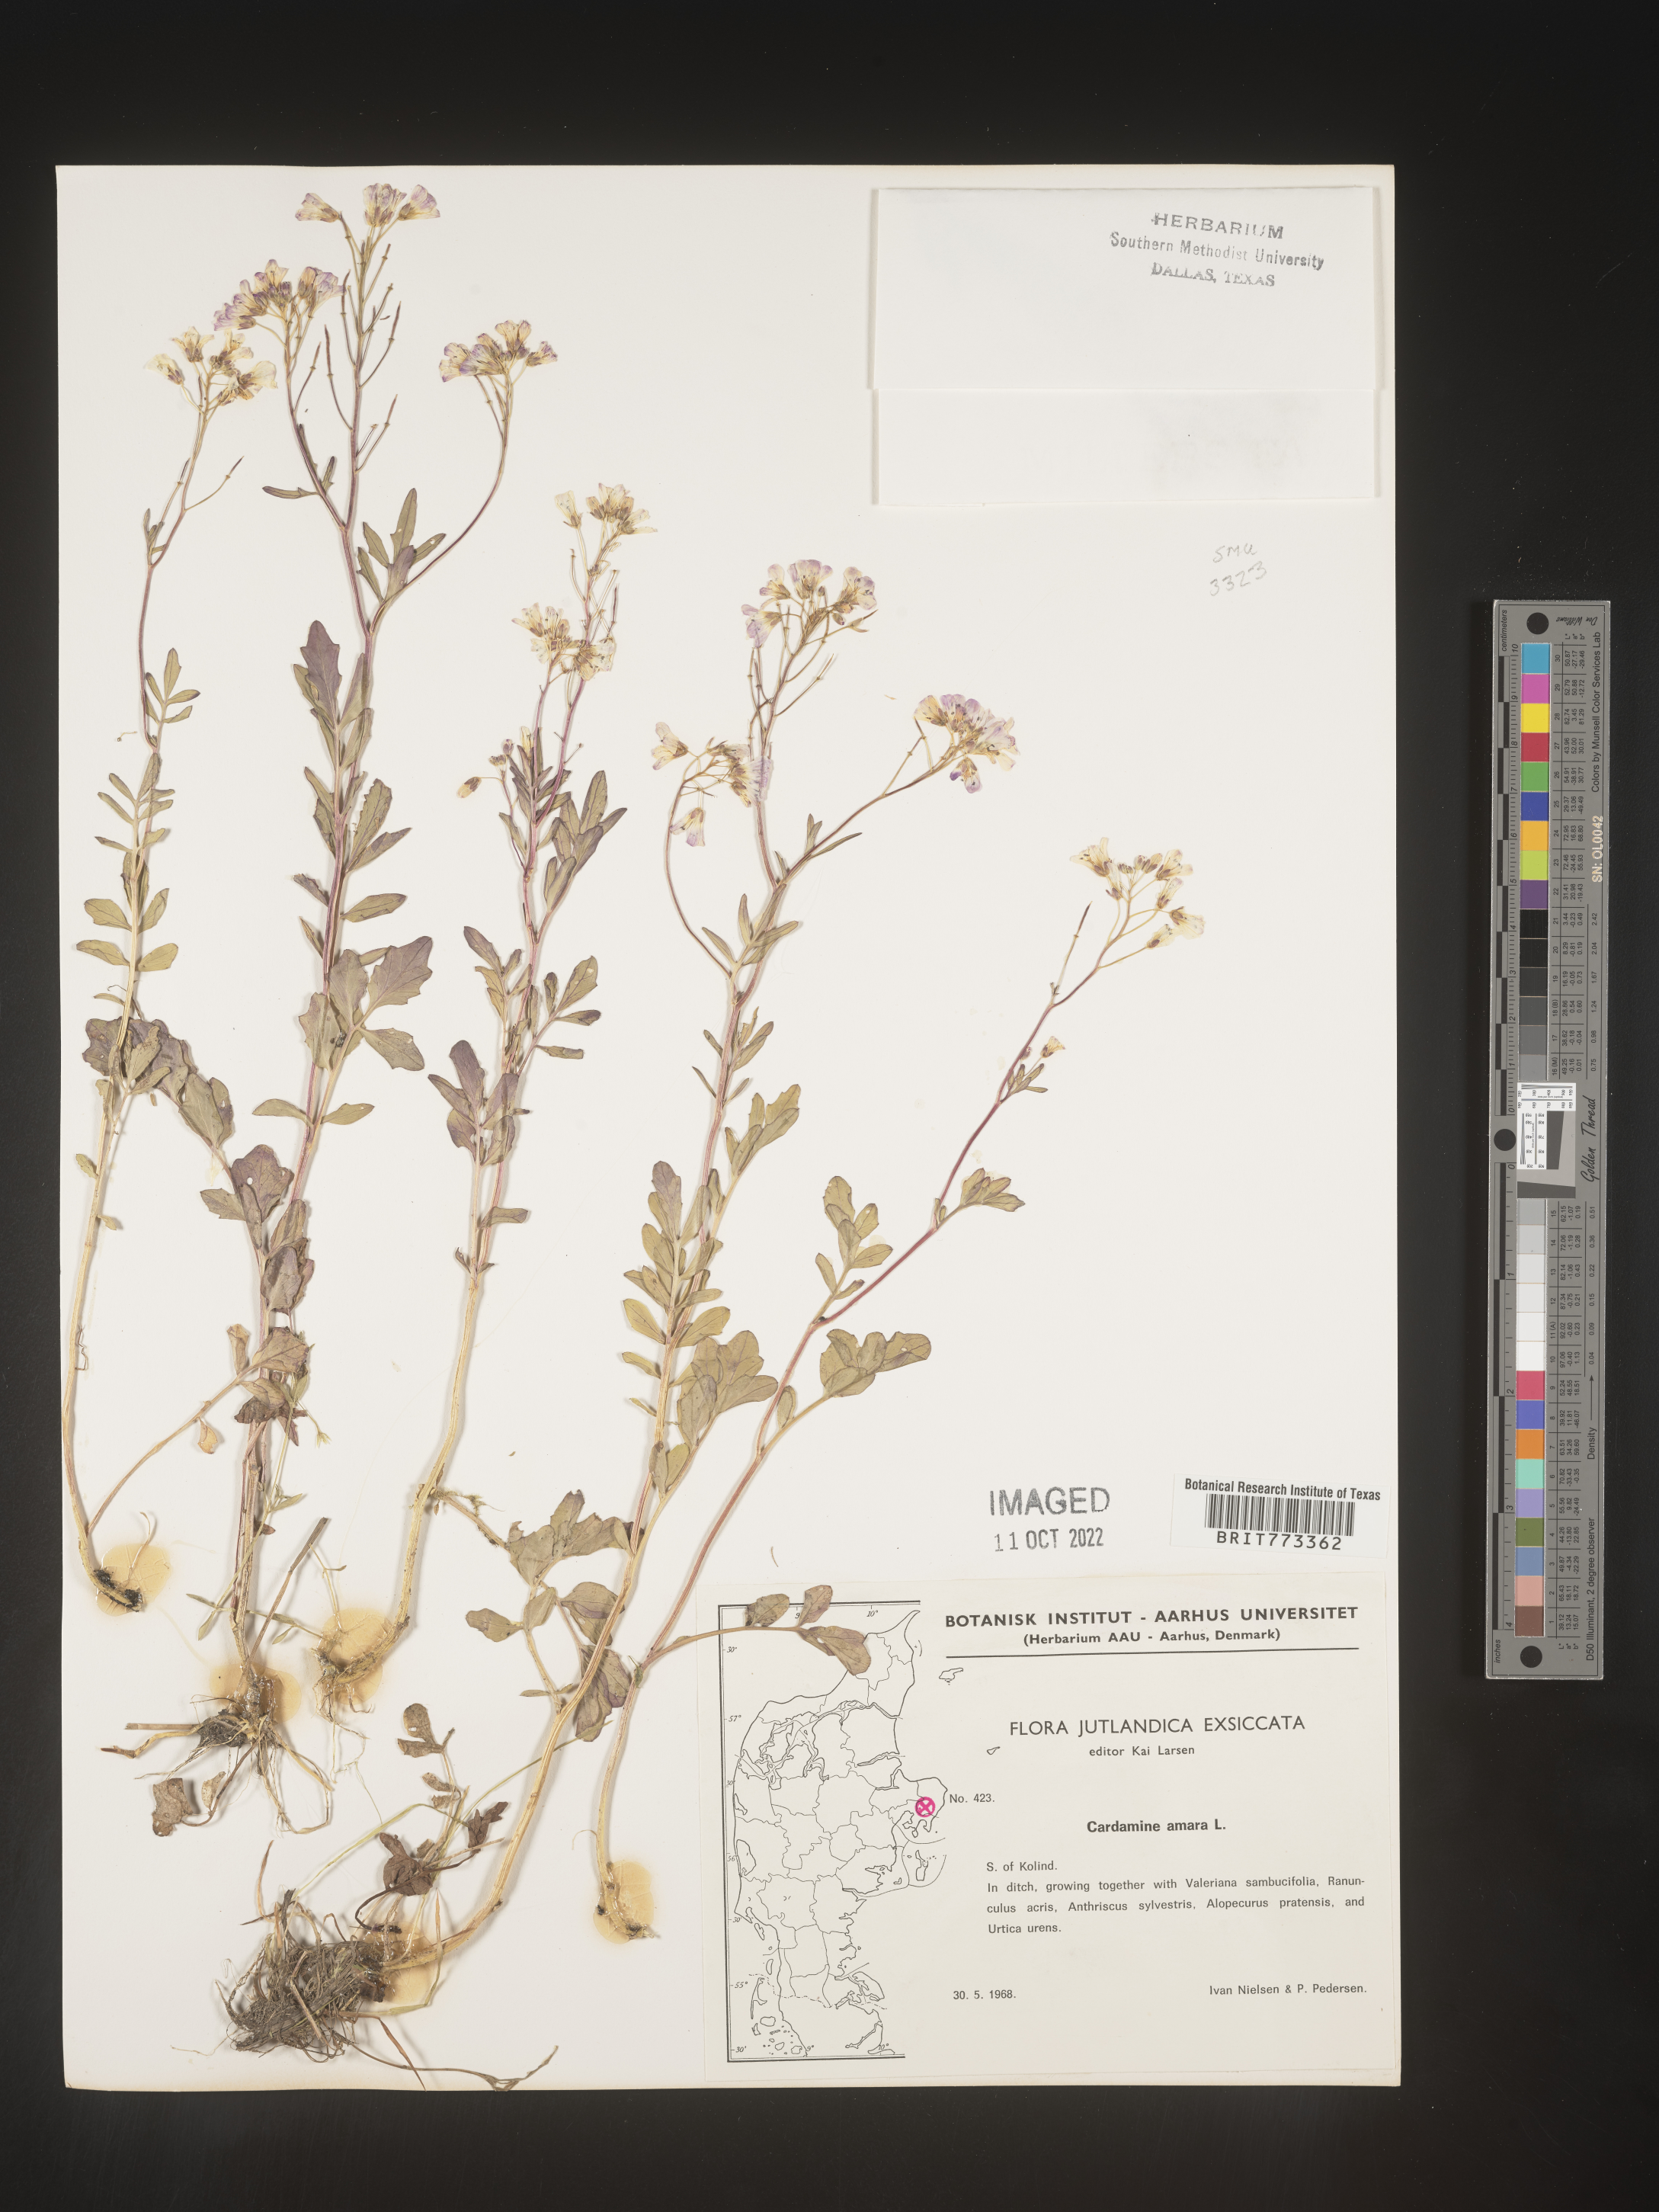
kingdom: Plantae
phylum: Tracheophyta
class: Magnoliopsida
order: Brassicales
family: Brassicaceae
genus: Cardamine
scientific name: Cardamine
